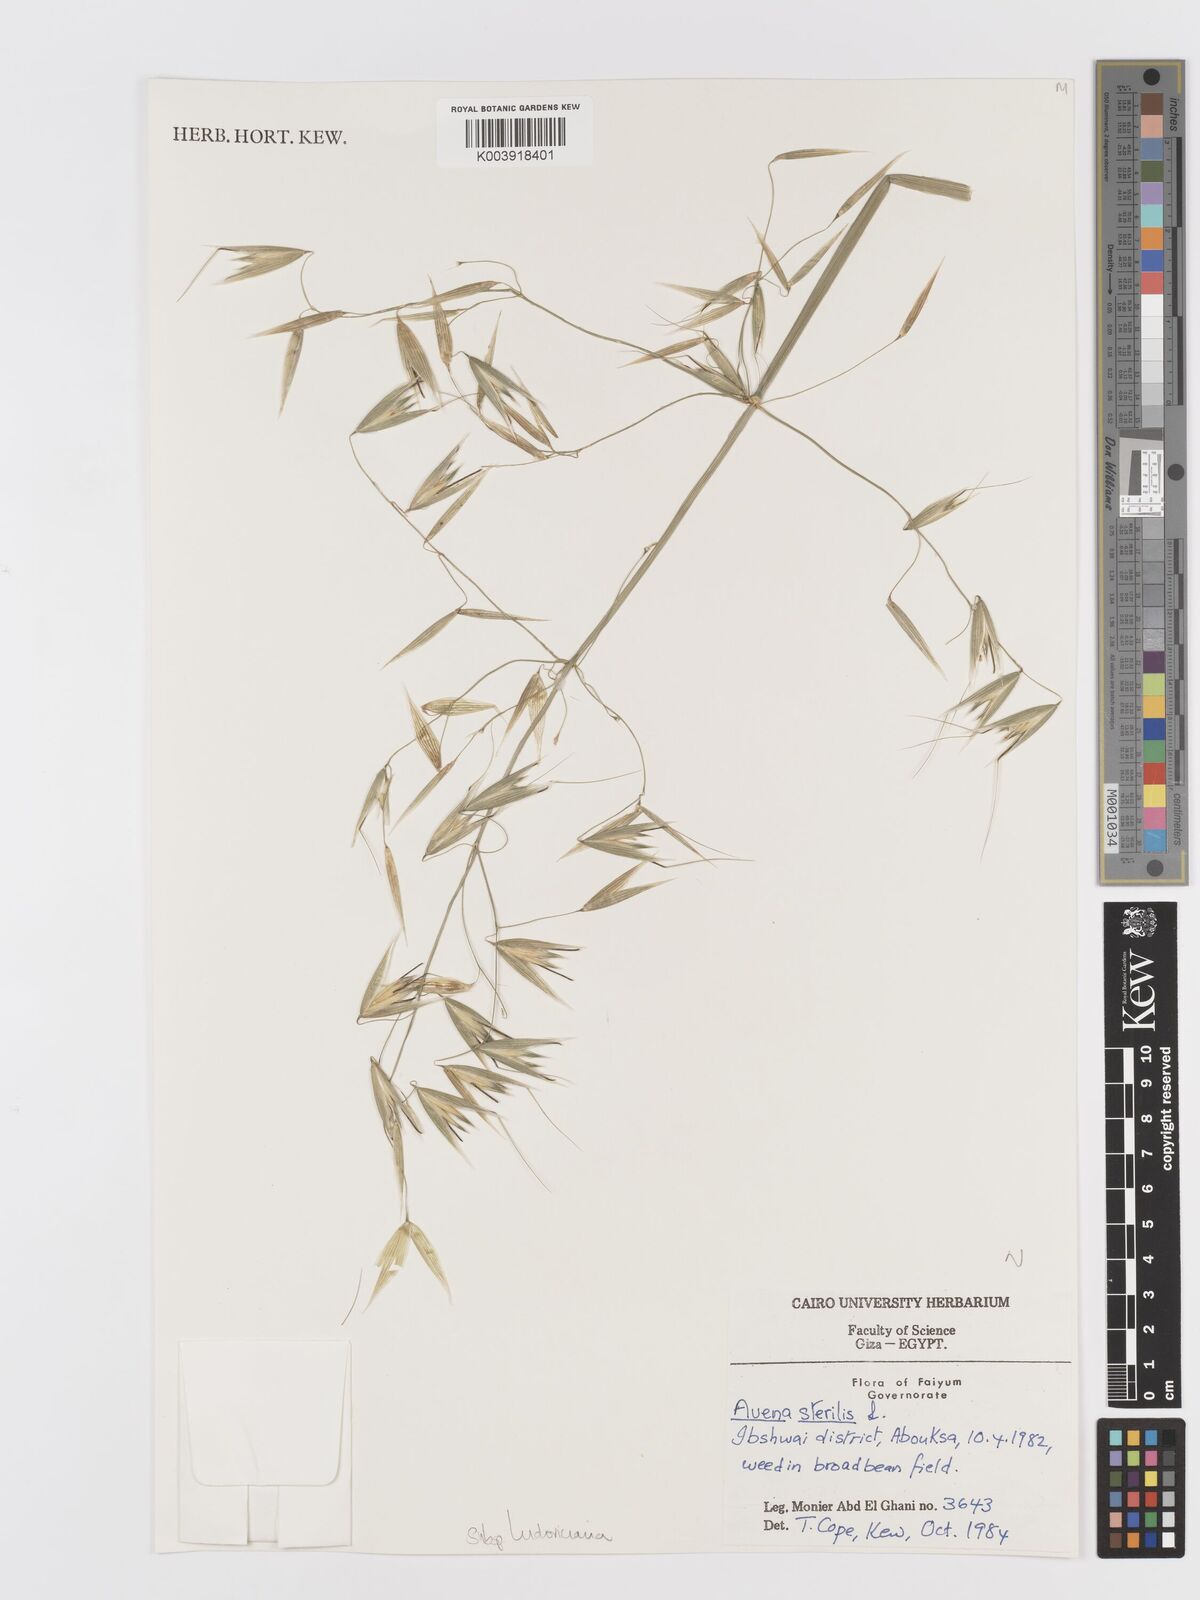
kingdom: Plantae
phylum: Tracheophyta
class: Liliopsida
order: Poales
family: Poaceae
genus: Avena
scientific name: Avena sterilis
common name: Animated oat
